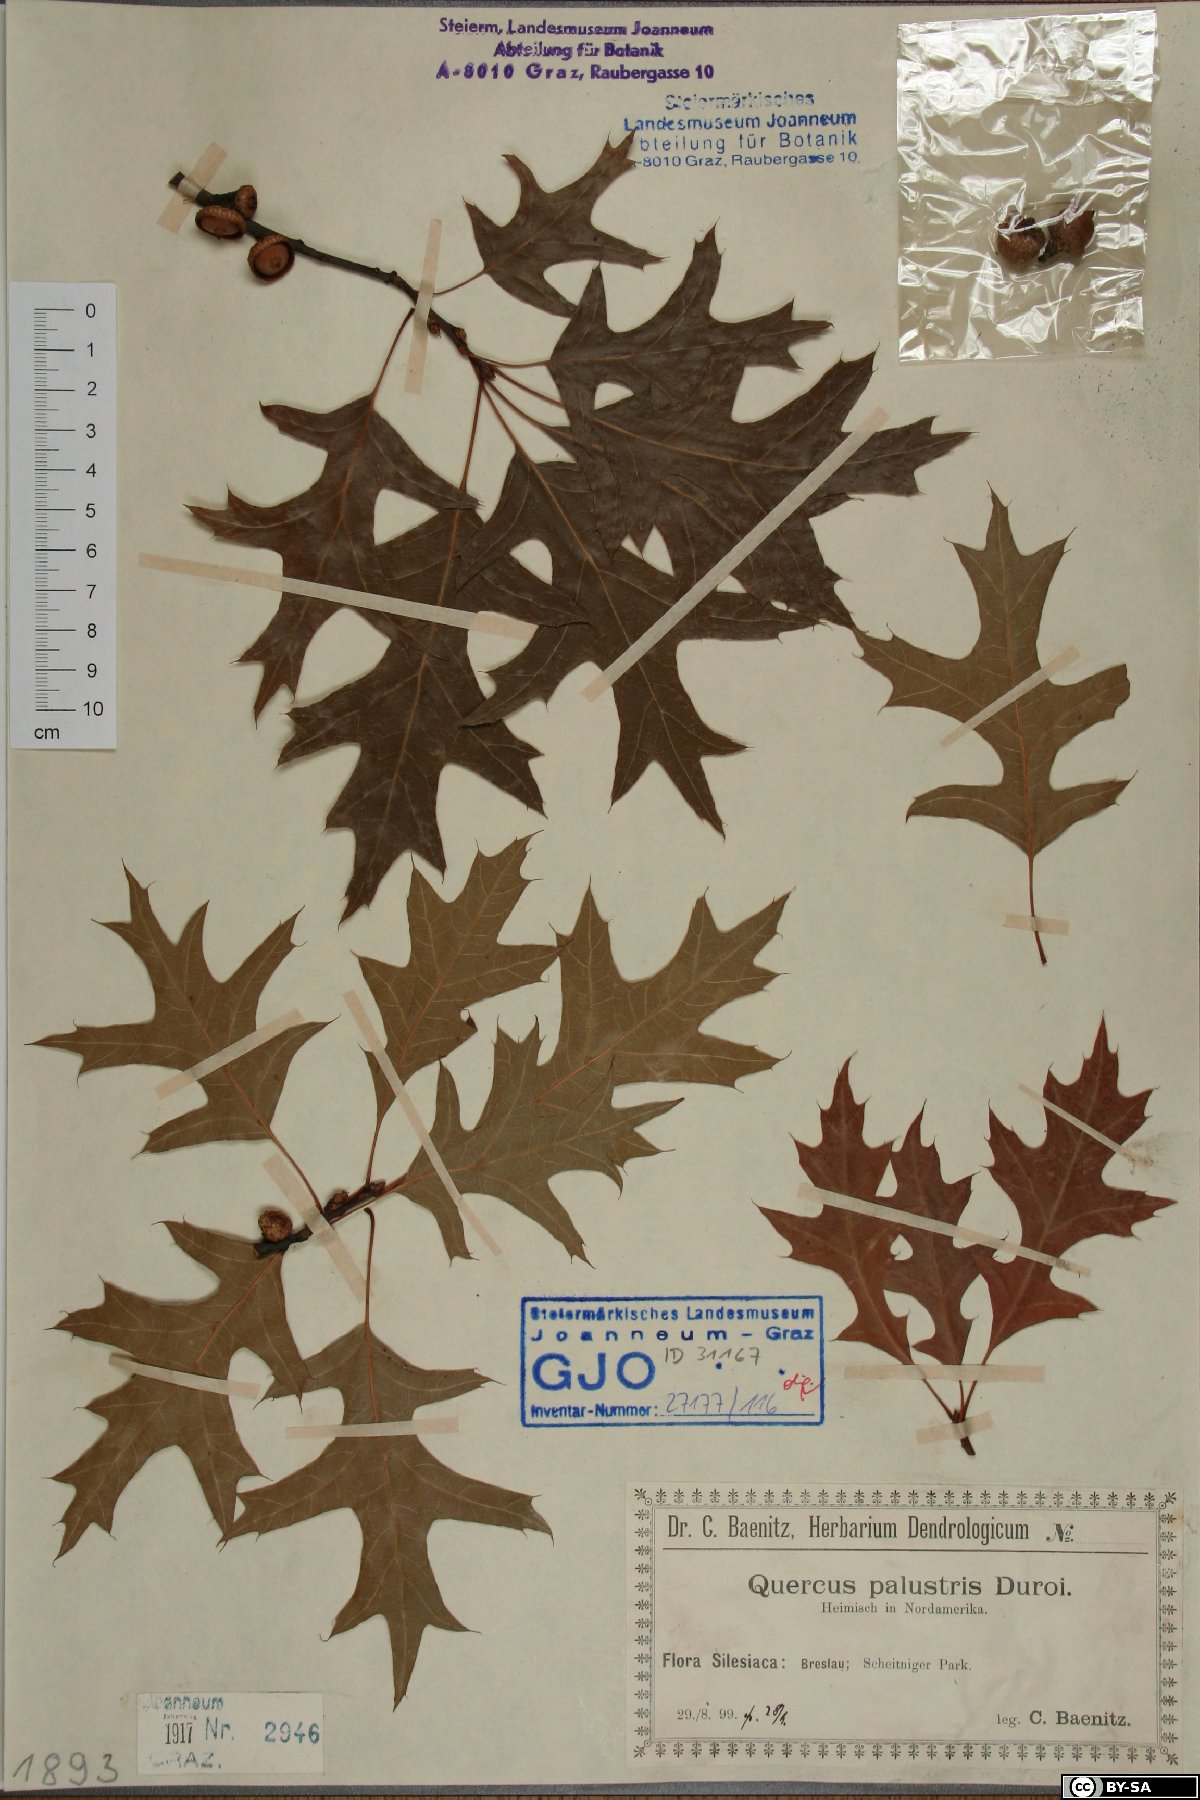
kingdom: Plantae
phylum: Tracheophyta
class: Magnoliopsida
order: Fagales
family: Fagaceae
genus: Quercus
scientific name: Quercus palustris
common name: Pin oak
